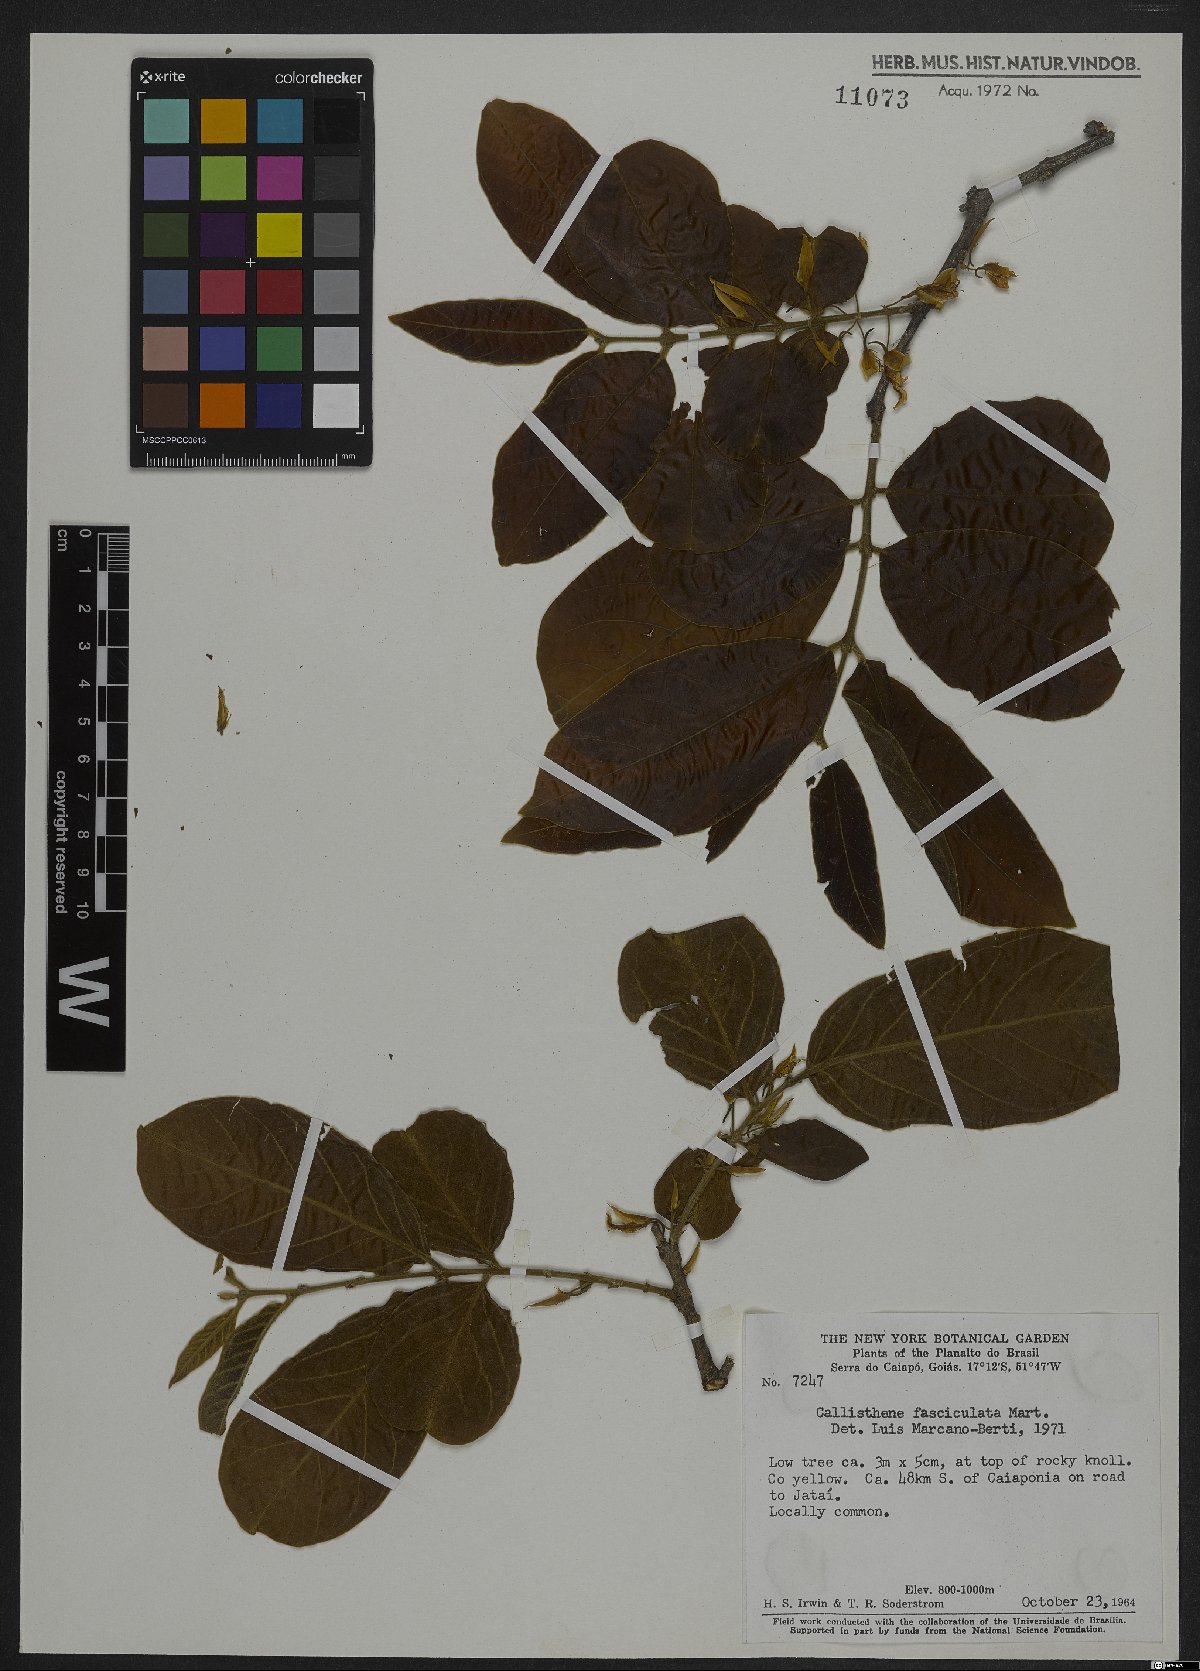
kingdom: Plantae
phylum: Tracheophyta
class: Magnoliopsida
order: Myrtales
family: Vochysiaceae
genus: Callisthene
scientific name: Callisthene fasciculata
